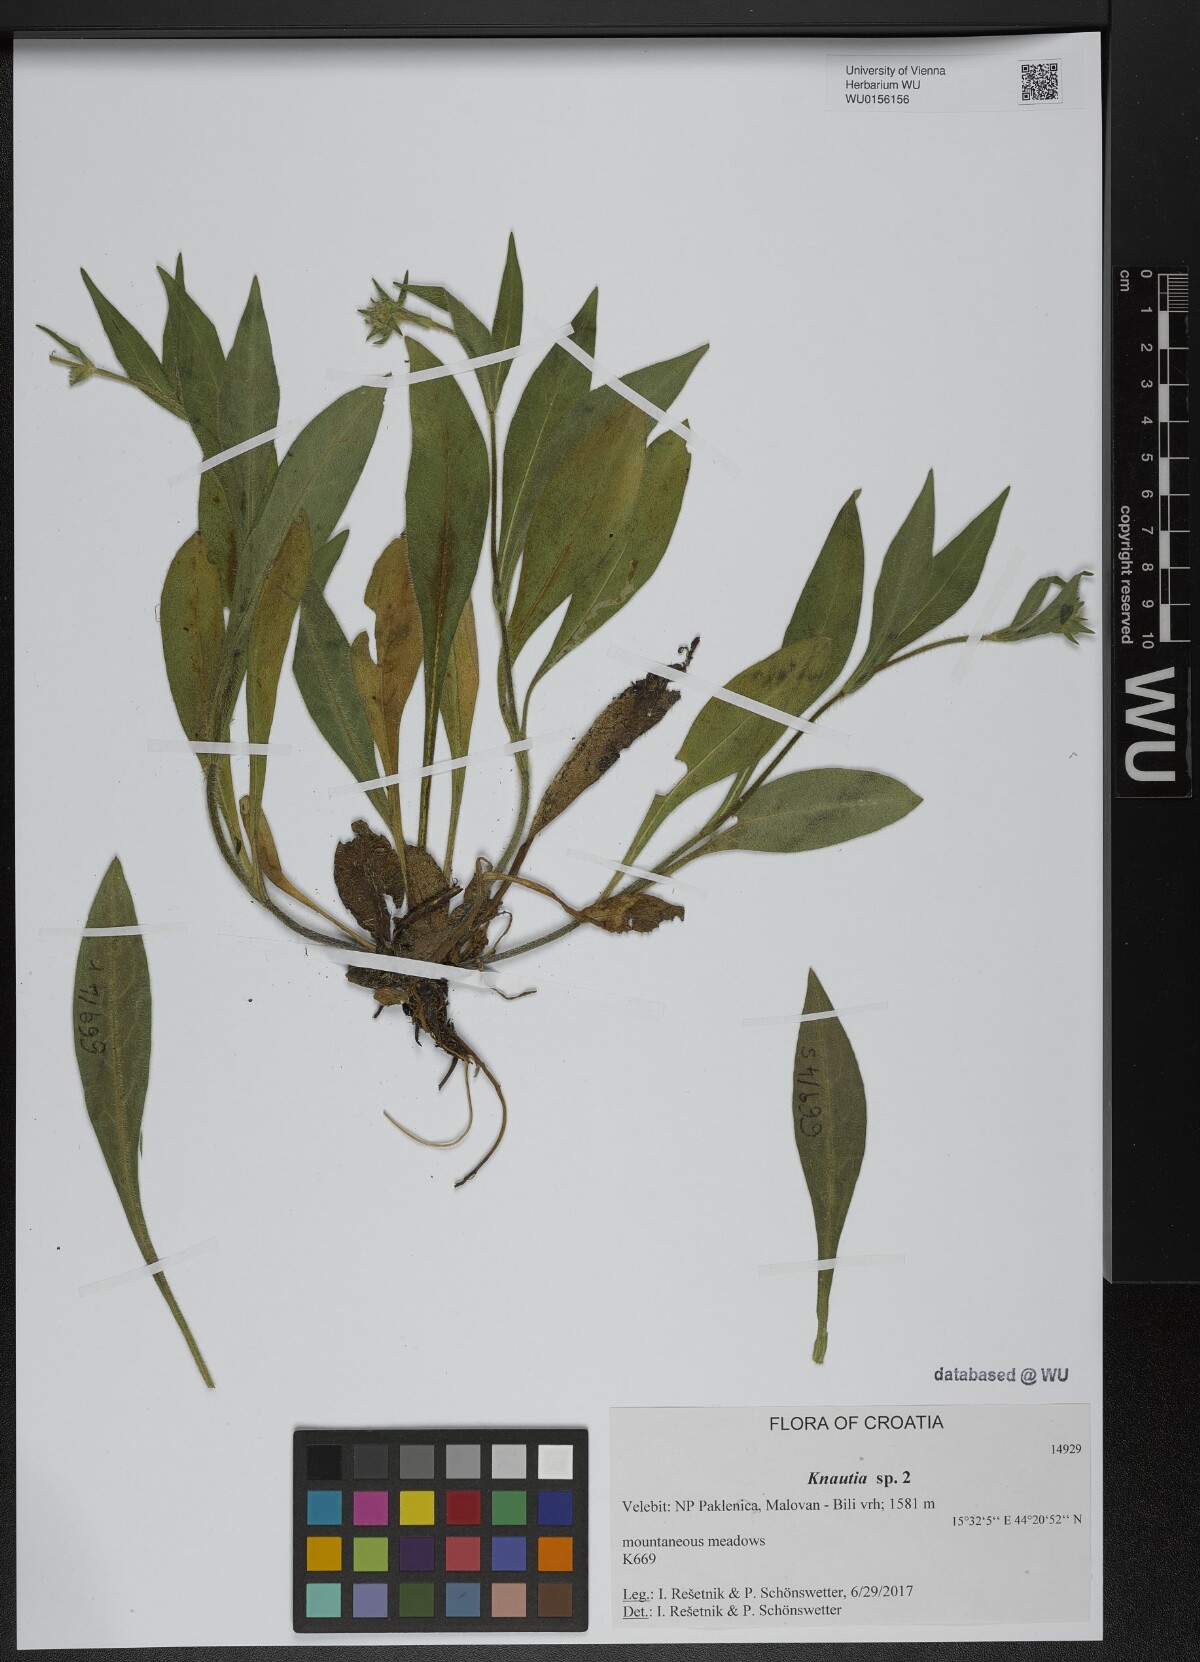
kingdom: Plantae
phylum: Tracheophyta
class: Magnoliopsida
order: Dipsacales
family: Caprifoliaceae
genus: Knautia
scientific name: Knautia
